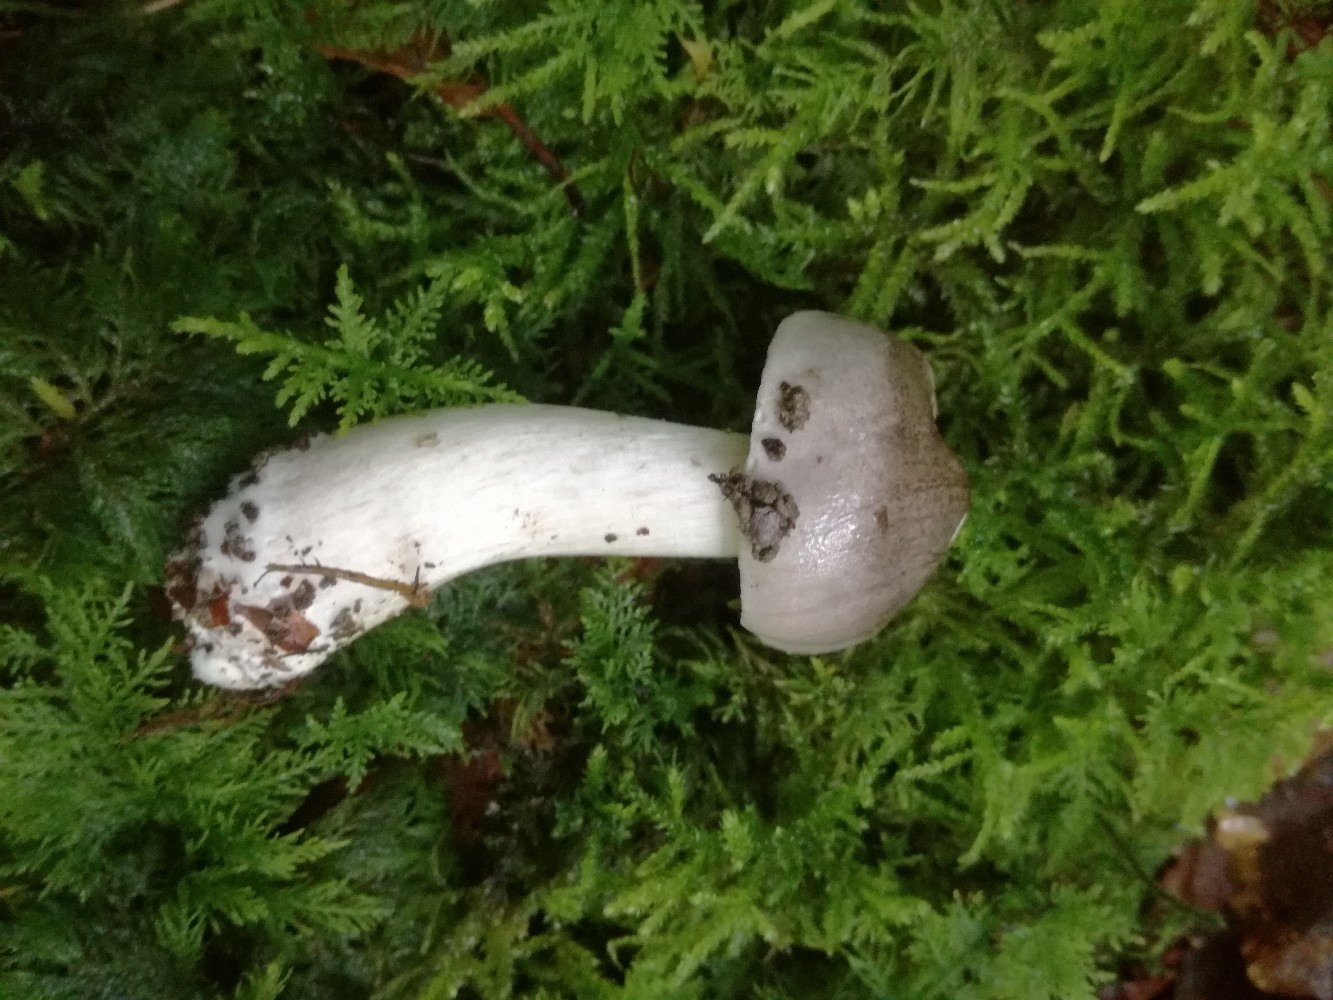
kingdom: Fungi
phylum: Basidiomycota
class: Agaricomycetes
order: Agaricales
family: Tricholomataceae
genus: Tricholoma
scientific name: Tricholoma sciodes
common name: stribet ridderhat
